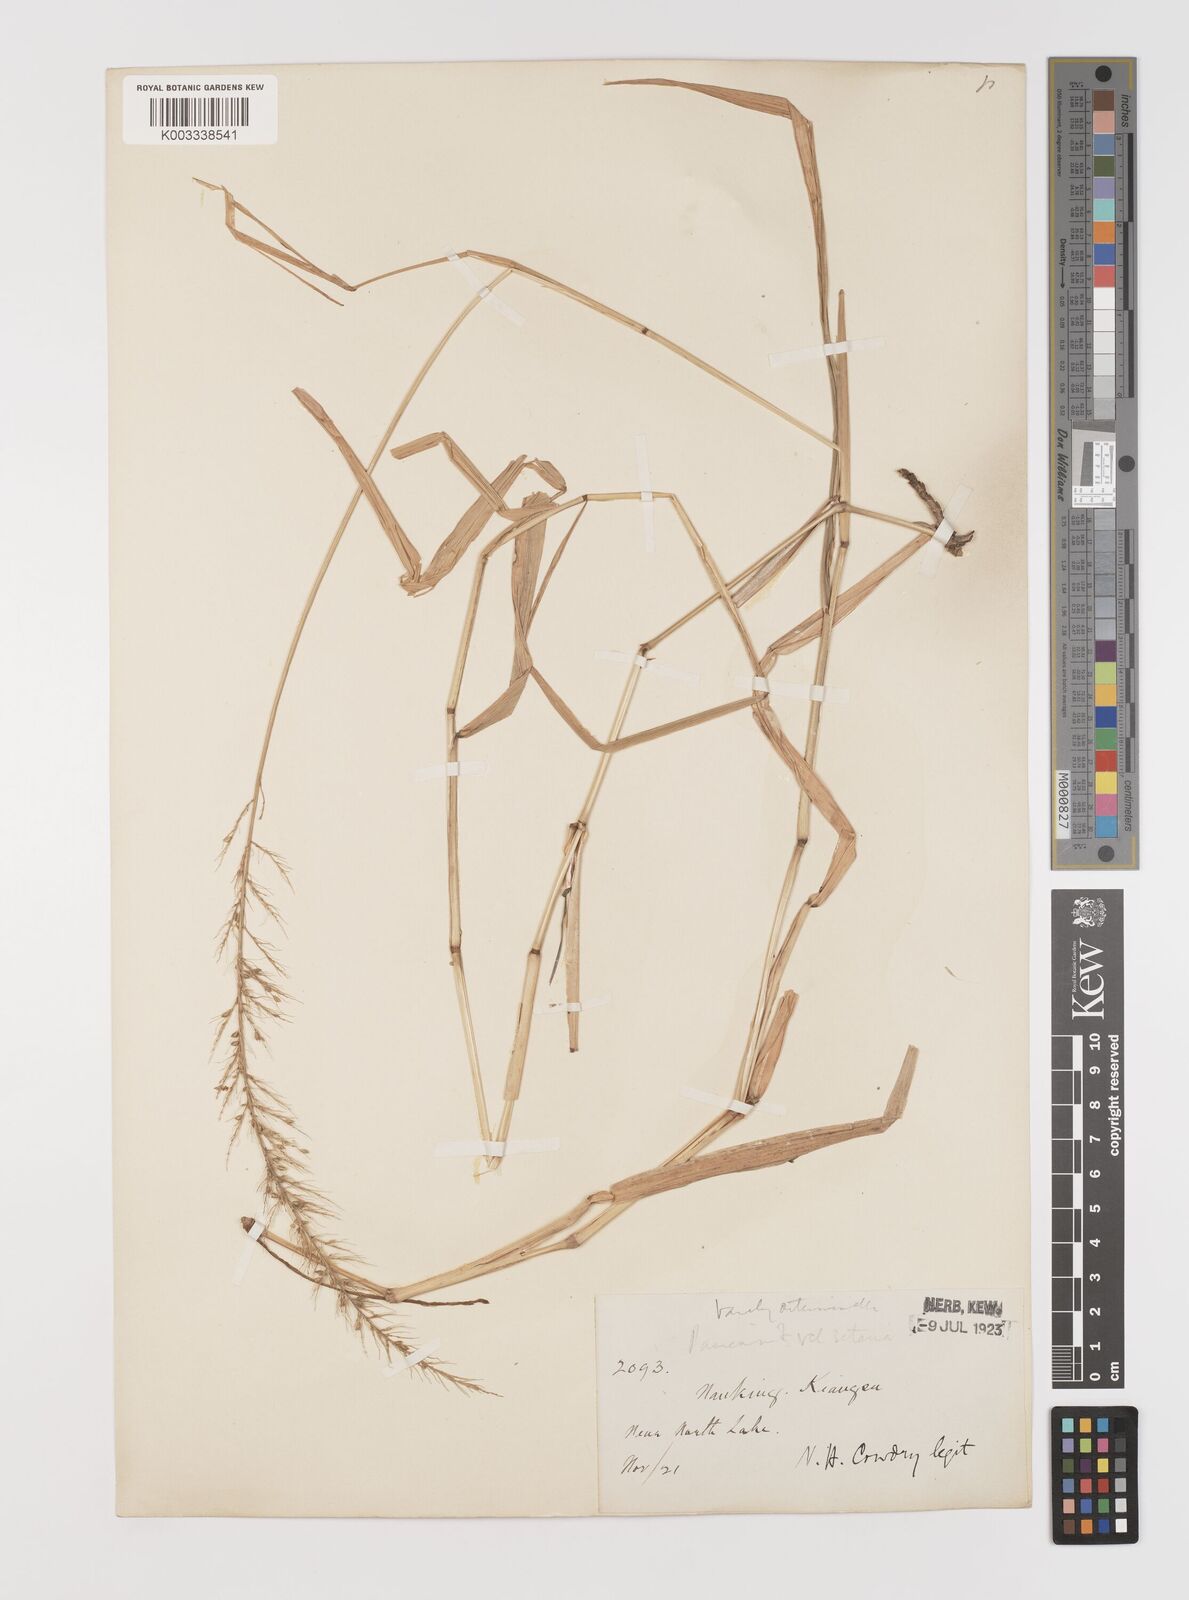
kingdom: Plantae
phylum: Tracheophyta
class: Liliopsida
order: Poales
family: Poaceae
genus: Setaria
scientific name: Setaria chondrachne
